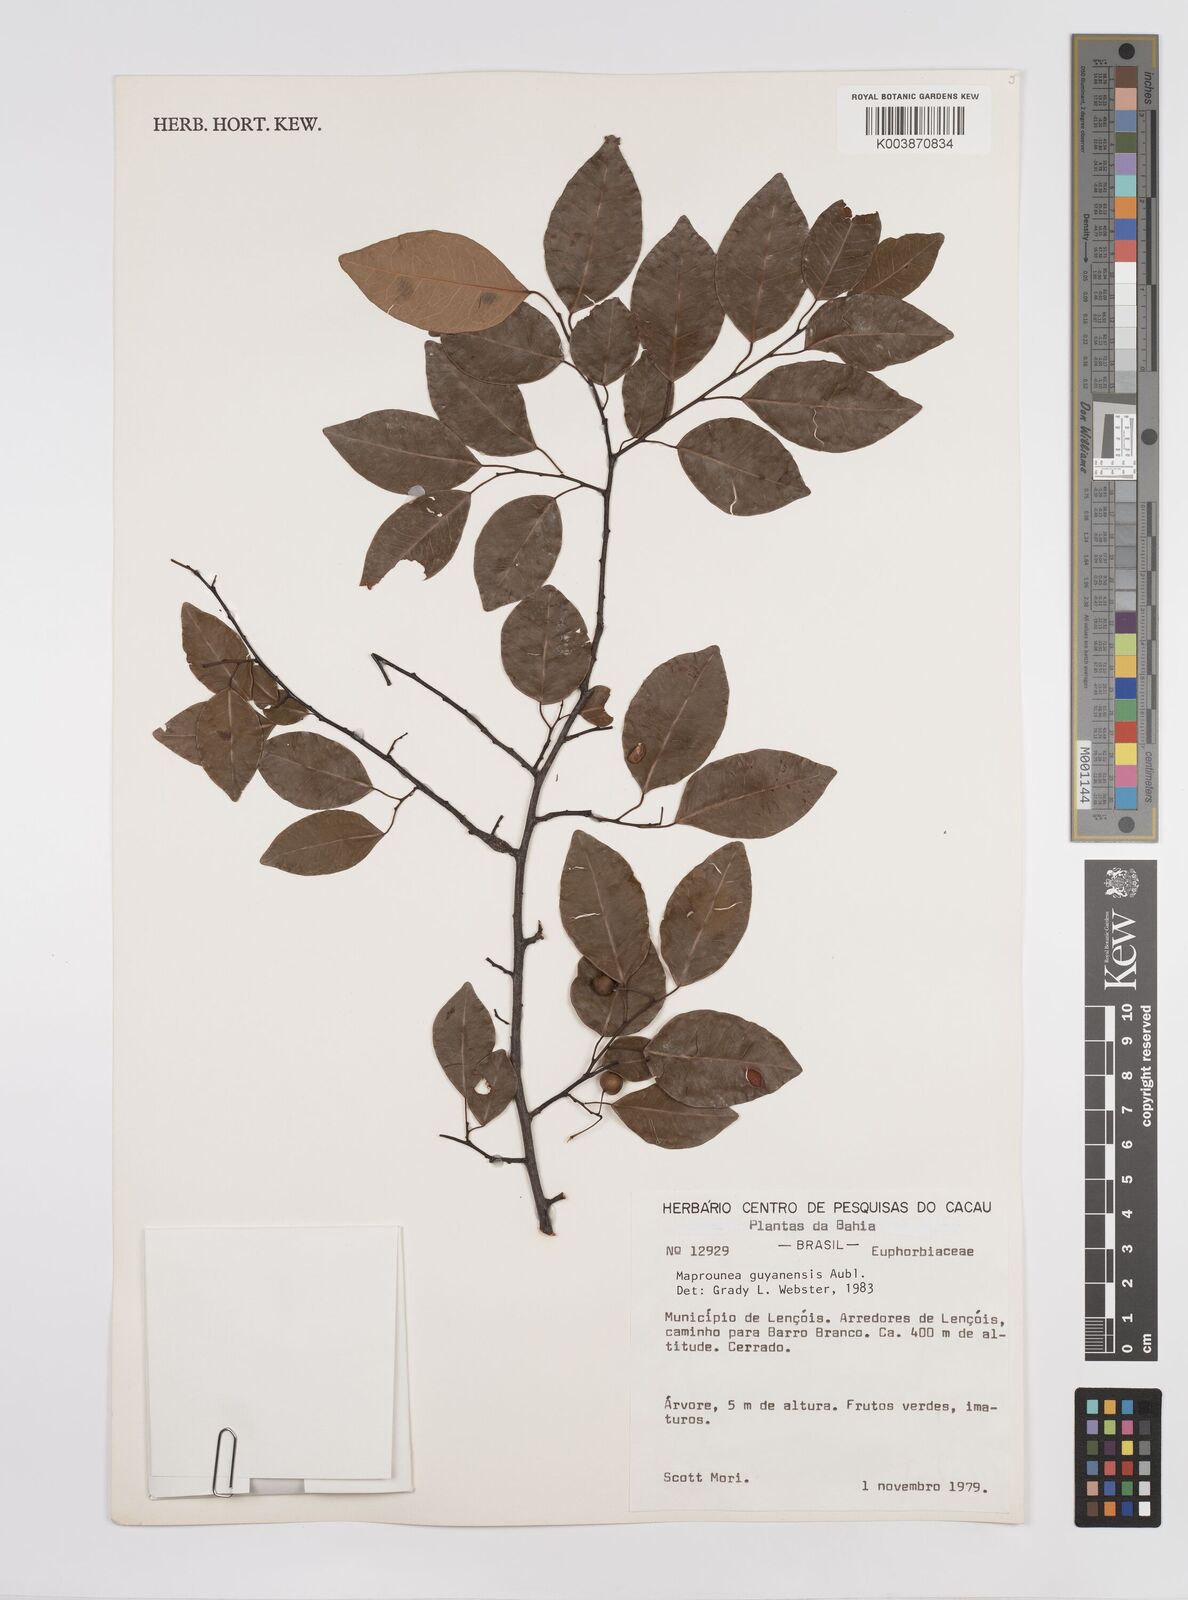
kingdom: Plantae
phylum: Tracheophyta
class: Magnoliopsida
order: Malpighiales
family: Euphorbiaceae
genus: Maprounea
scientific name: Maprounea guianensis
